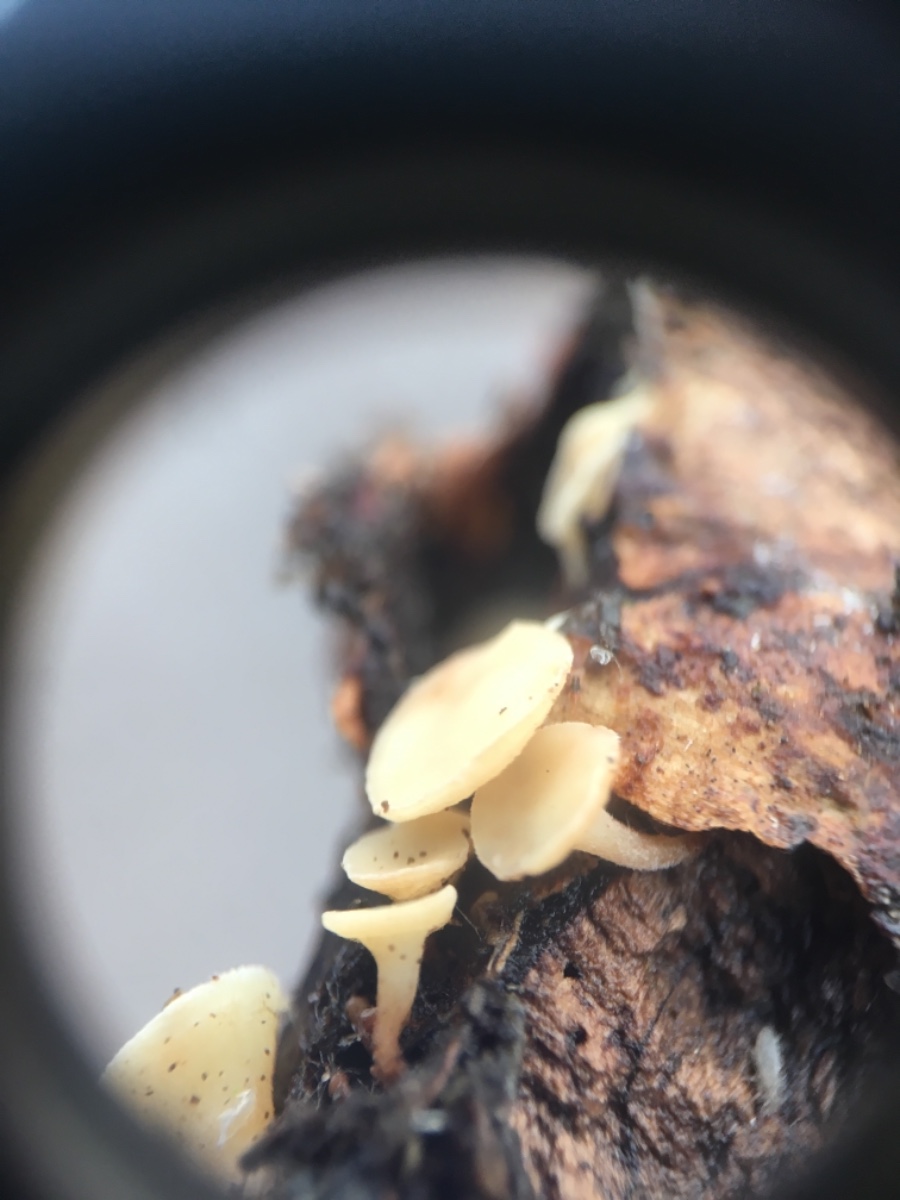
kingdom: Fungi
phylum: Ascomycota
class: Leotiomycetes
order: Helotiales
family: Helotiaceae
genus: Hymenoscyphus
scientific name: Hymenoscyphus
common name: stilkskive
